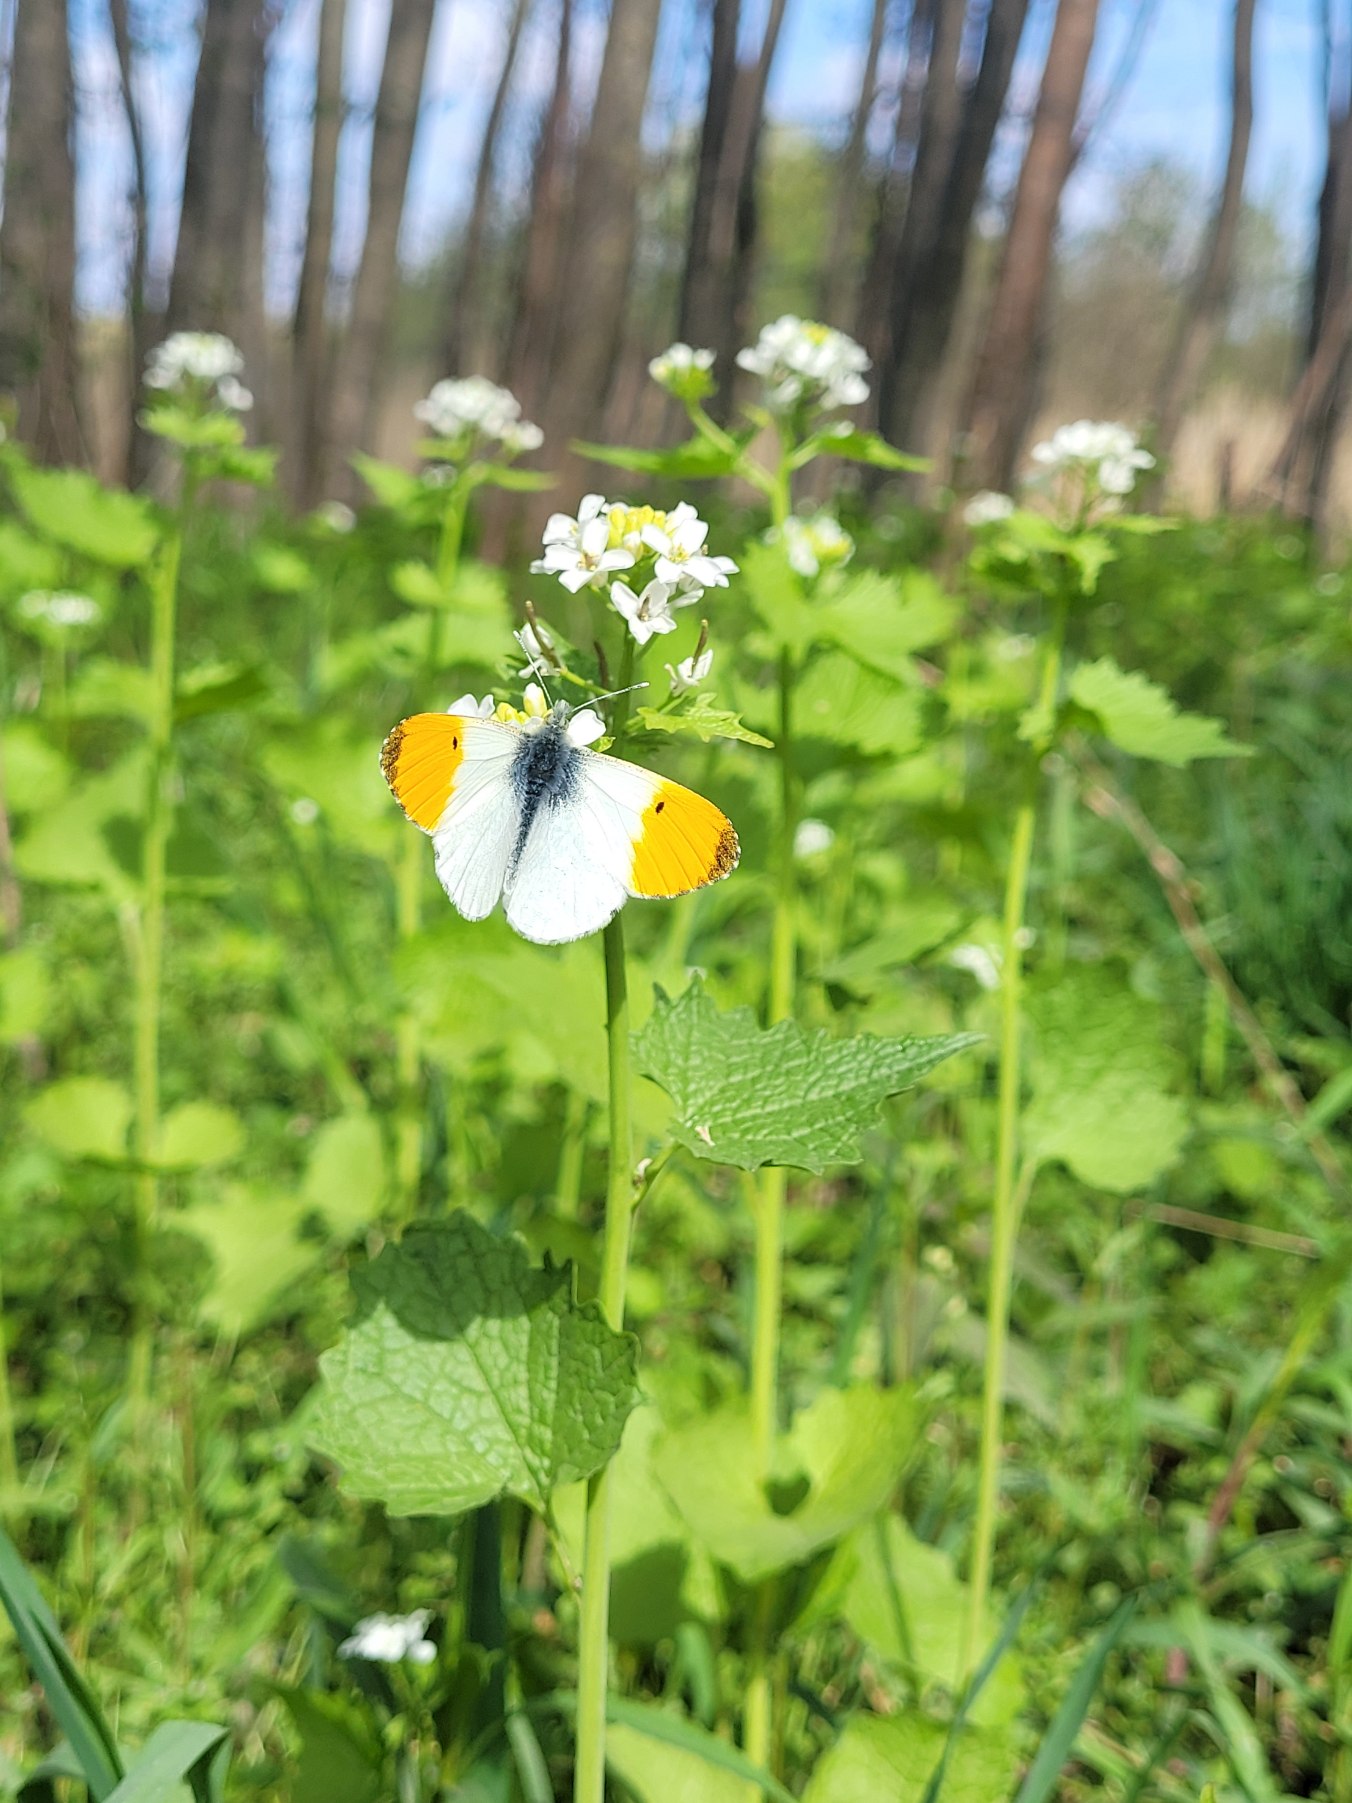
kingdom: Animalia
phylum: Arthropoda
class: Insecta
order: Lepidoptera
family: Pieridae
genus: Anthocharis
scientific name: Anthocharis cardamines
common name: Aurora
